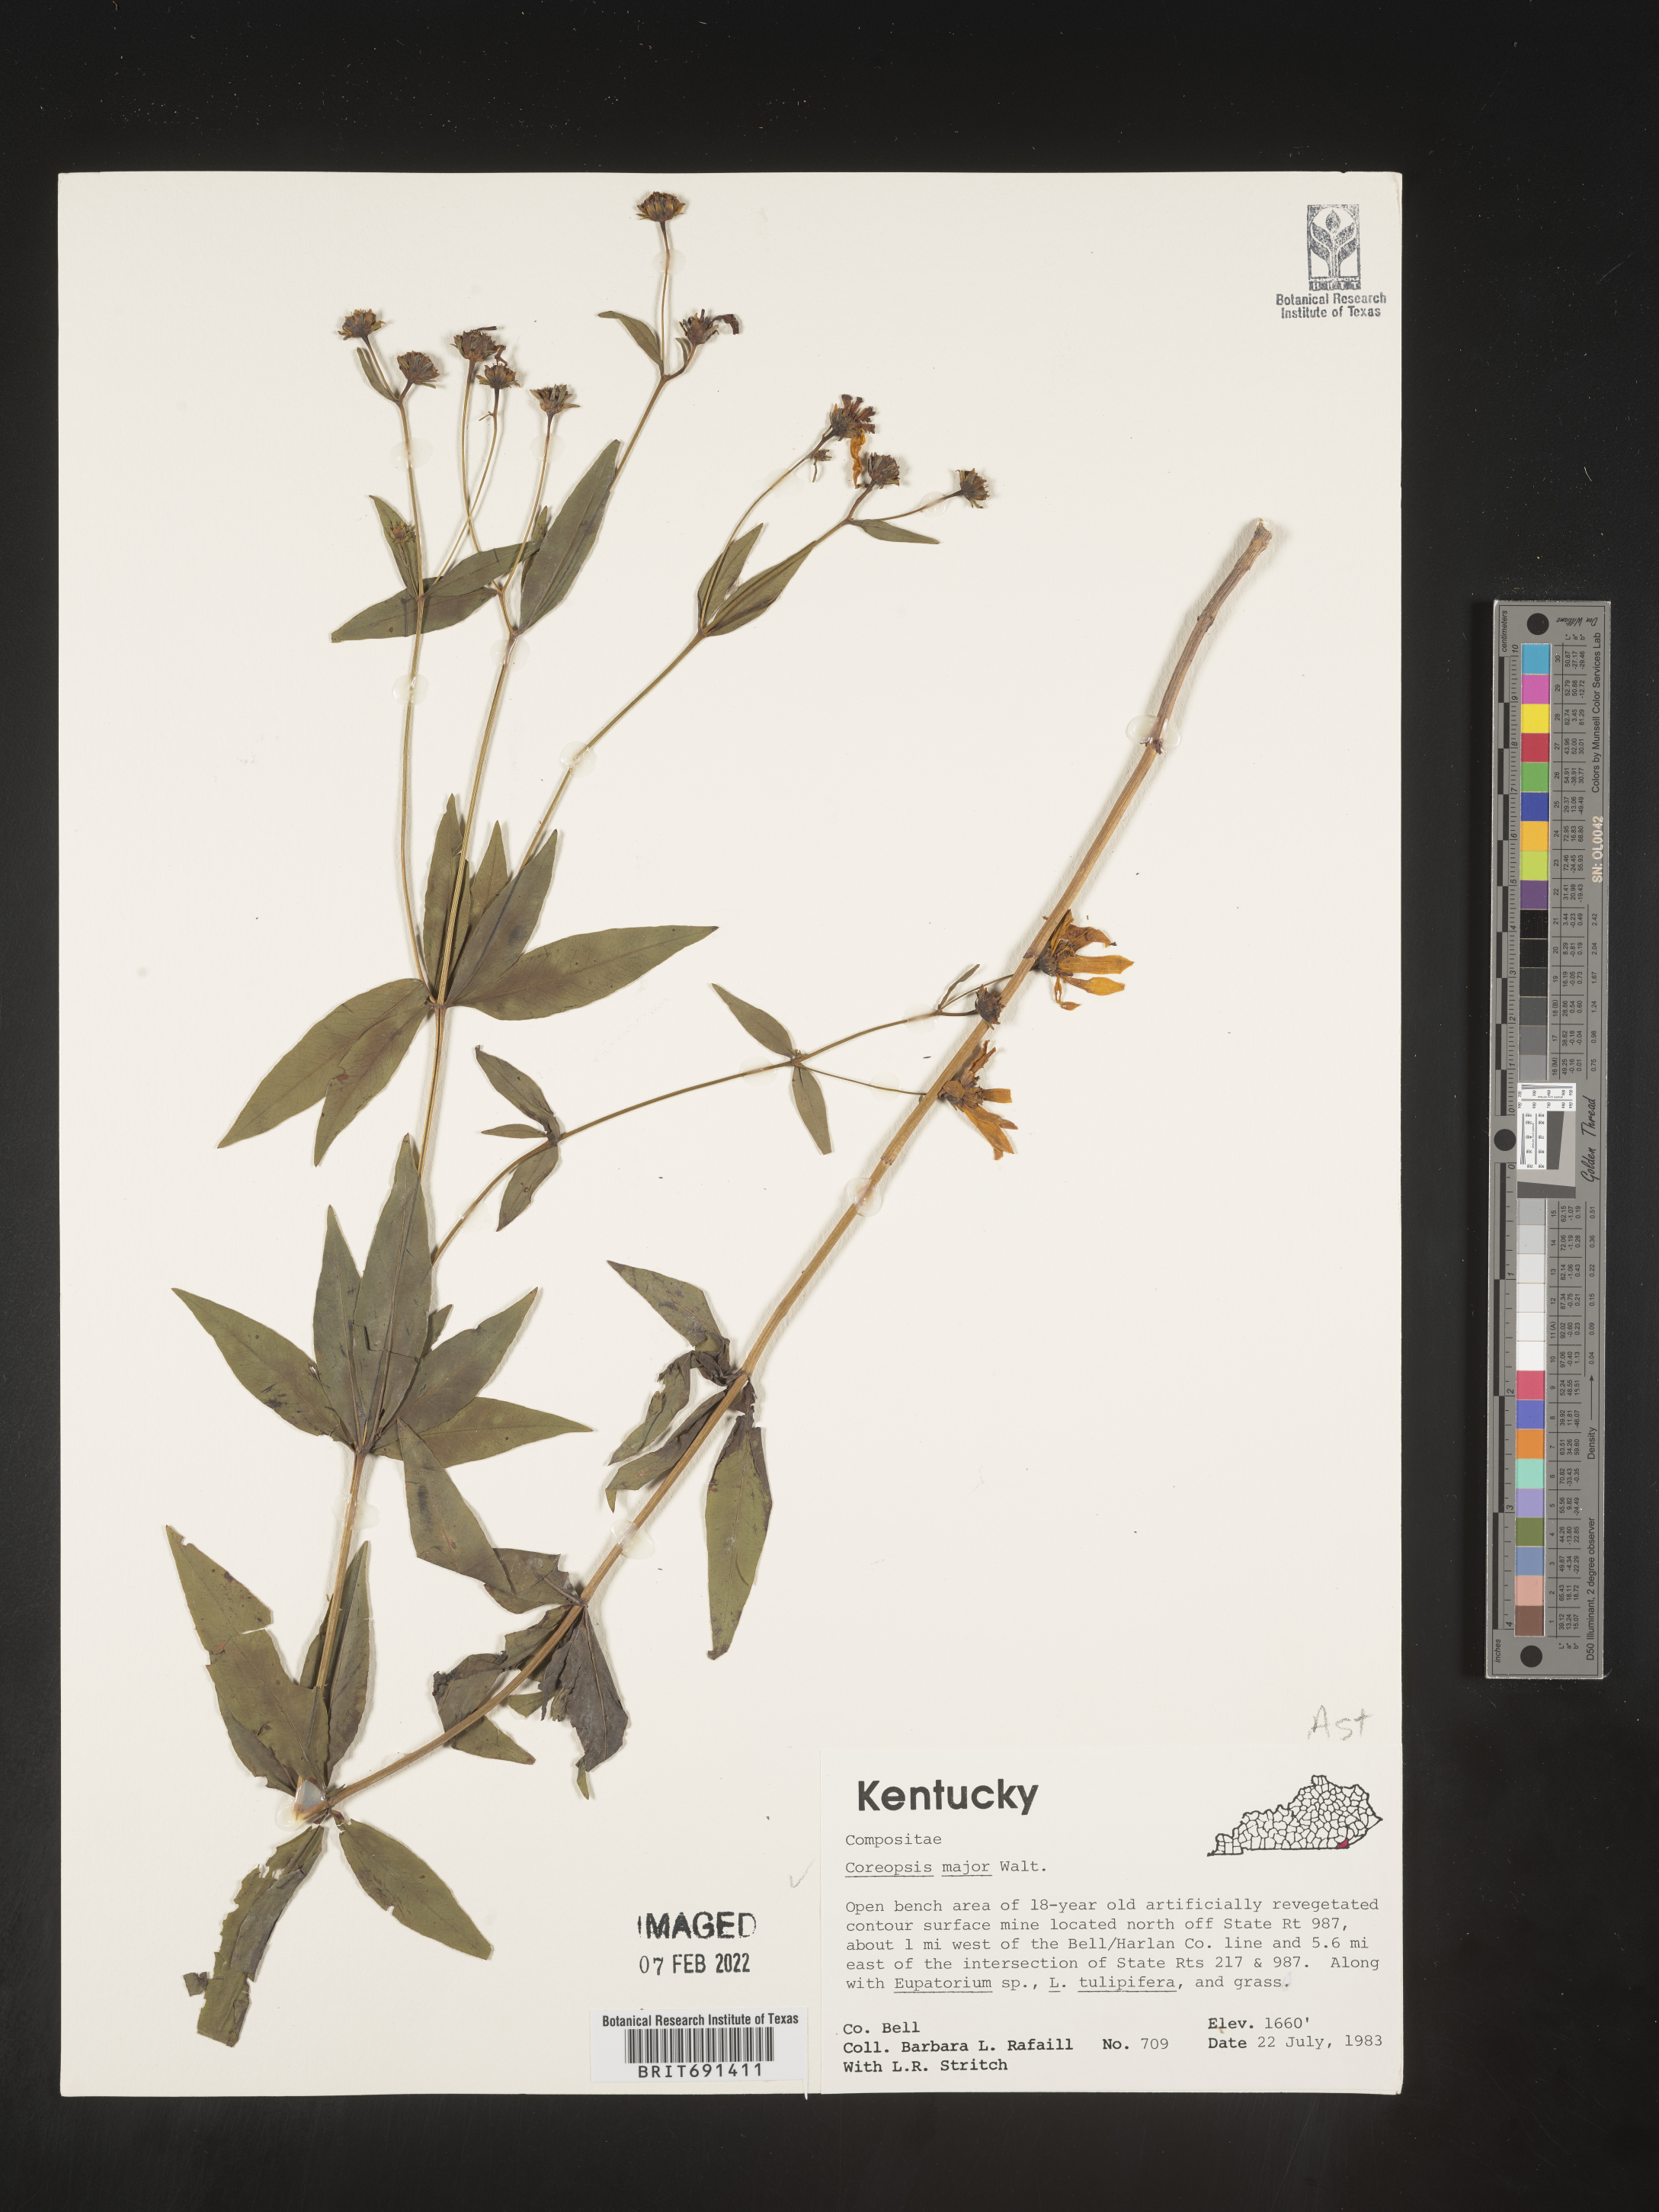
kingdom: Plantae
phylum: Tracheophyta
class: Magnoliopsida
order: Asterales
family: Asteraceae
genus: Coreopsis
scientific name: Coreopsis major
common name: Forest tickseed
